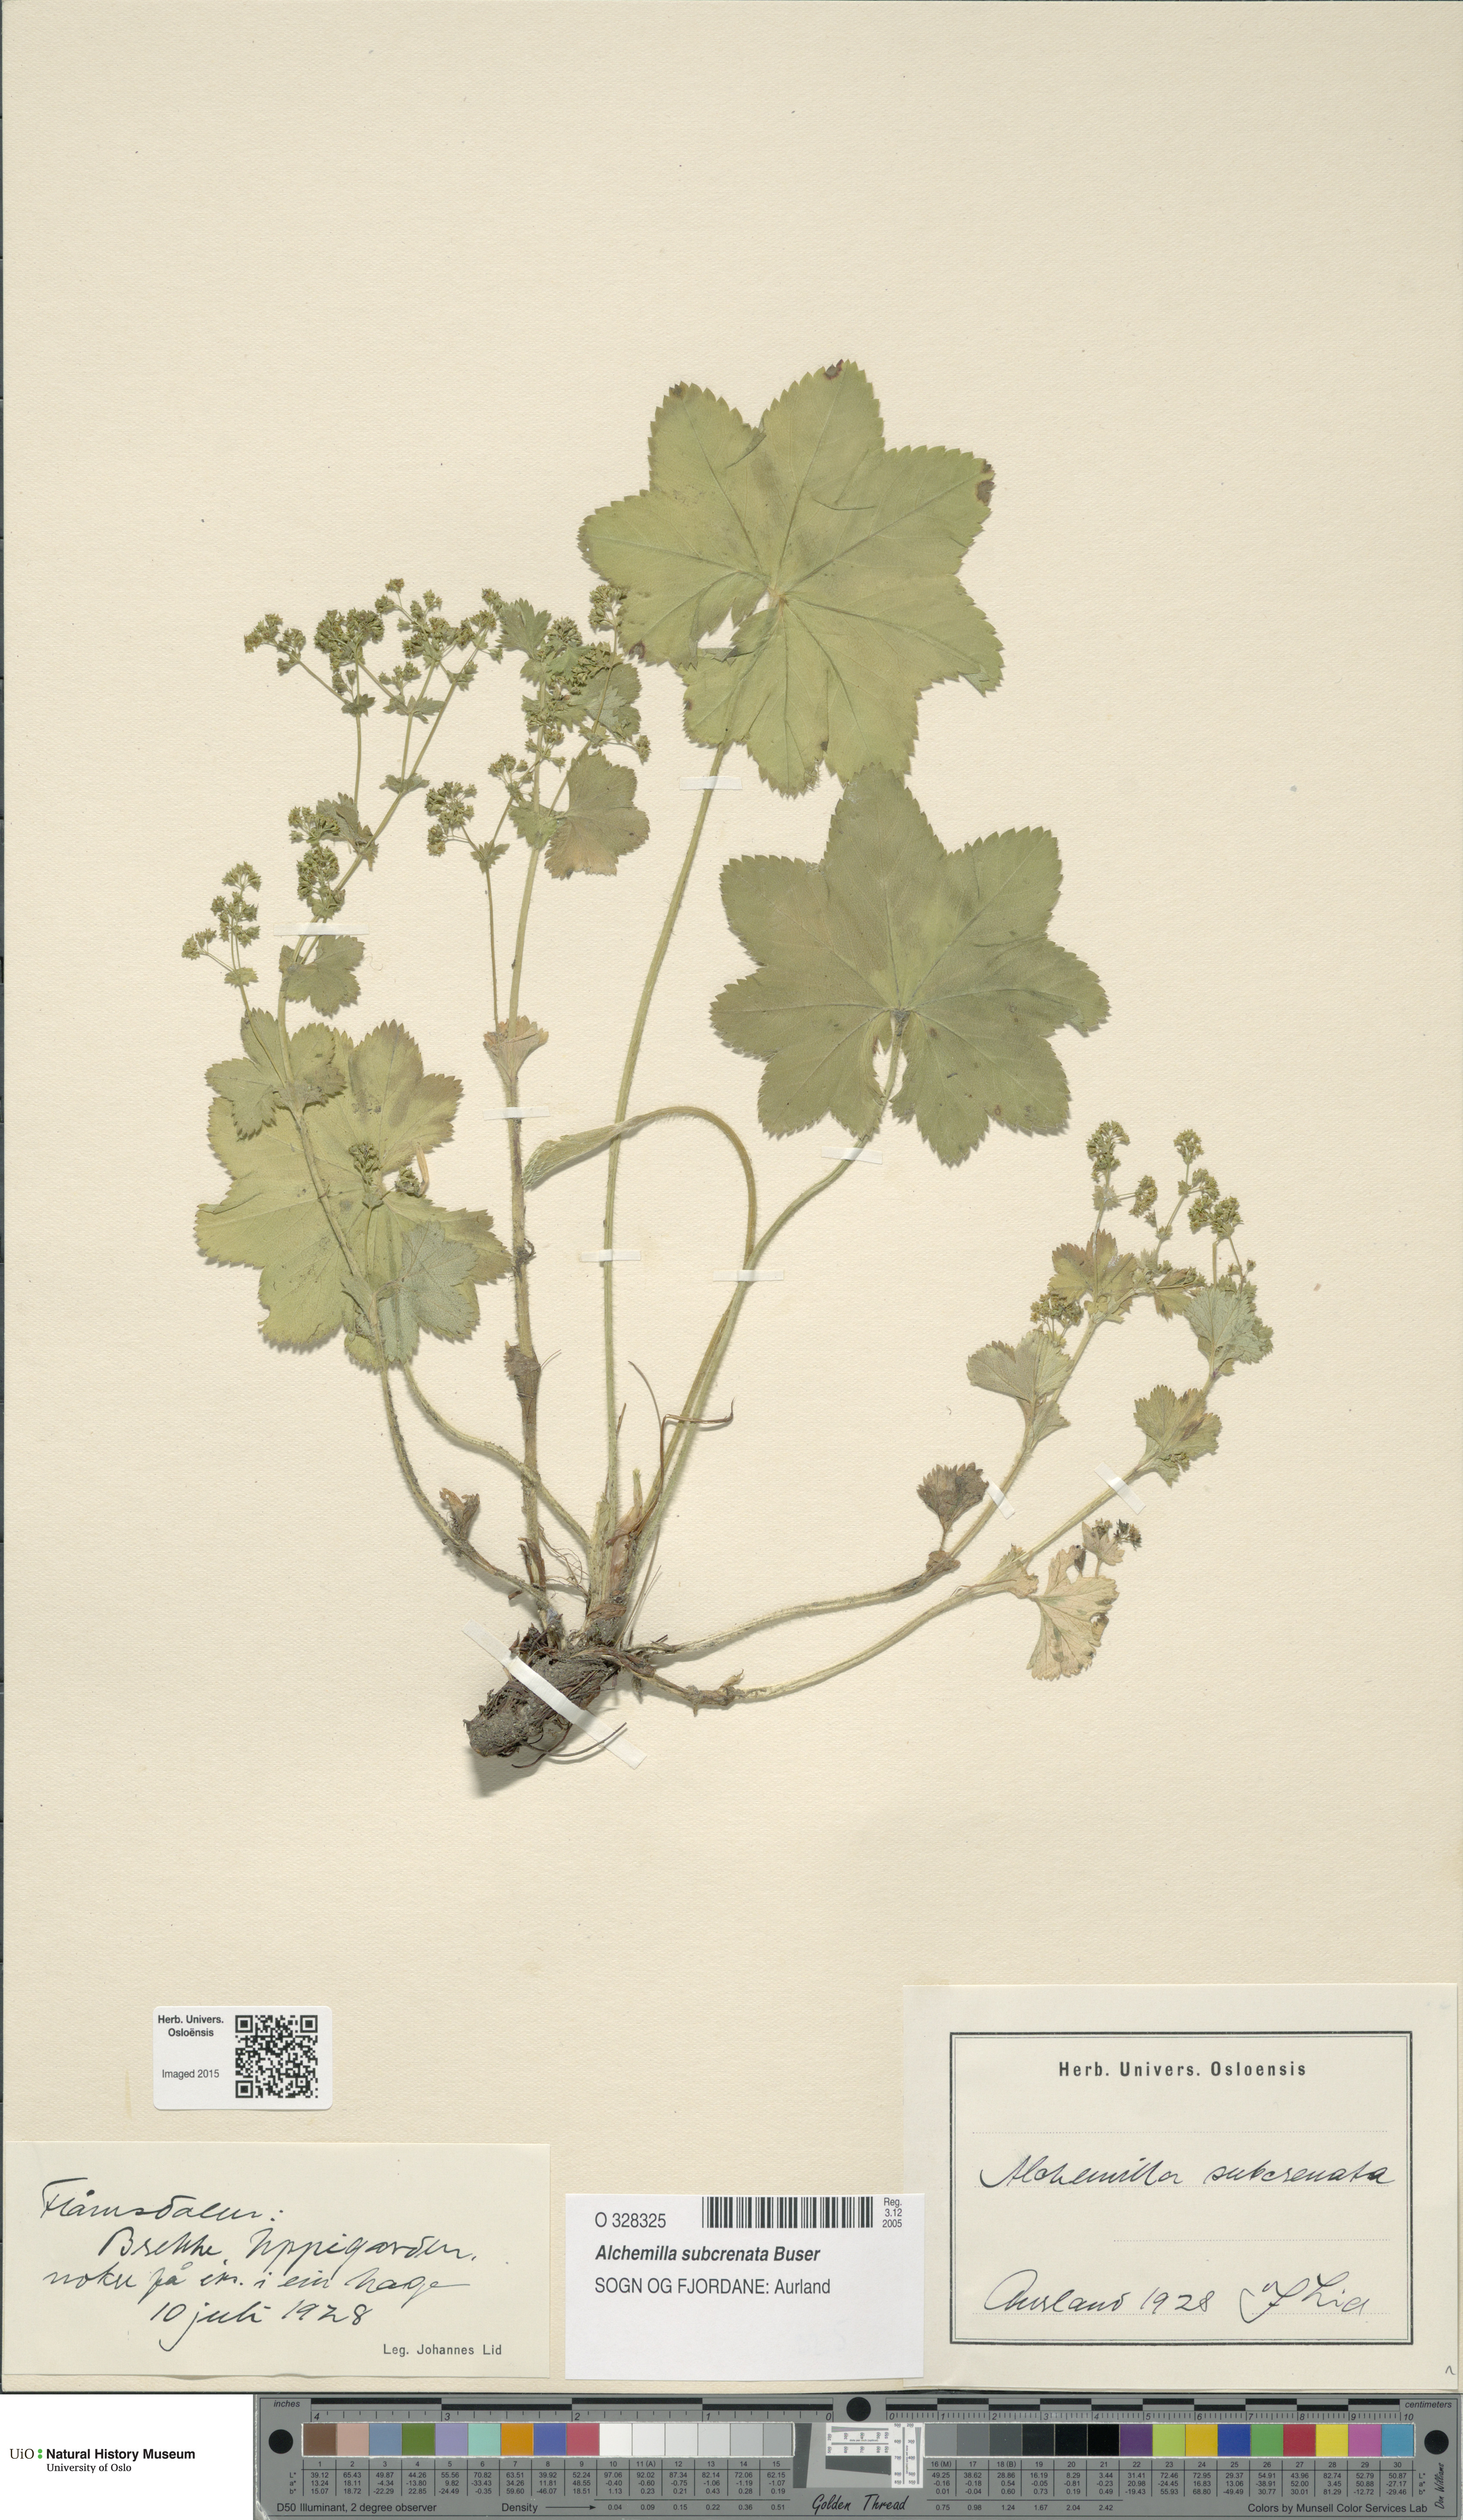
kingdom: Plantae
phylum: Tracheophyta
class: Magnoliopsida
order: Rosales
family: Rosaceae
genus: Alchemilla
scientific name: Alchemilla subcrenata
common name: Broadtooth lady's mantle
